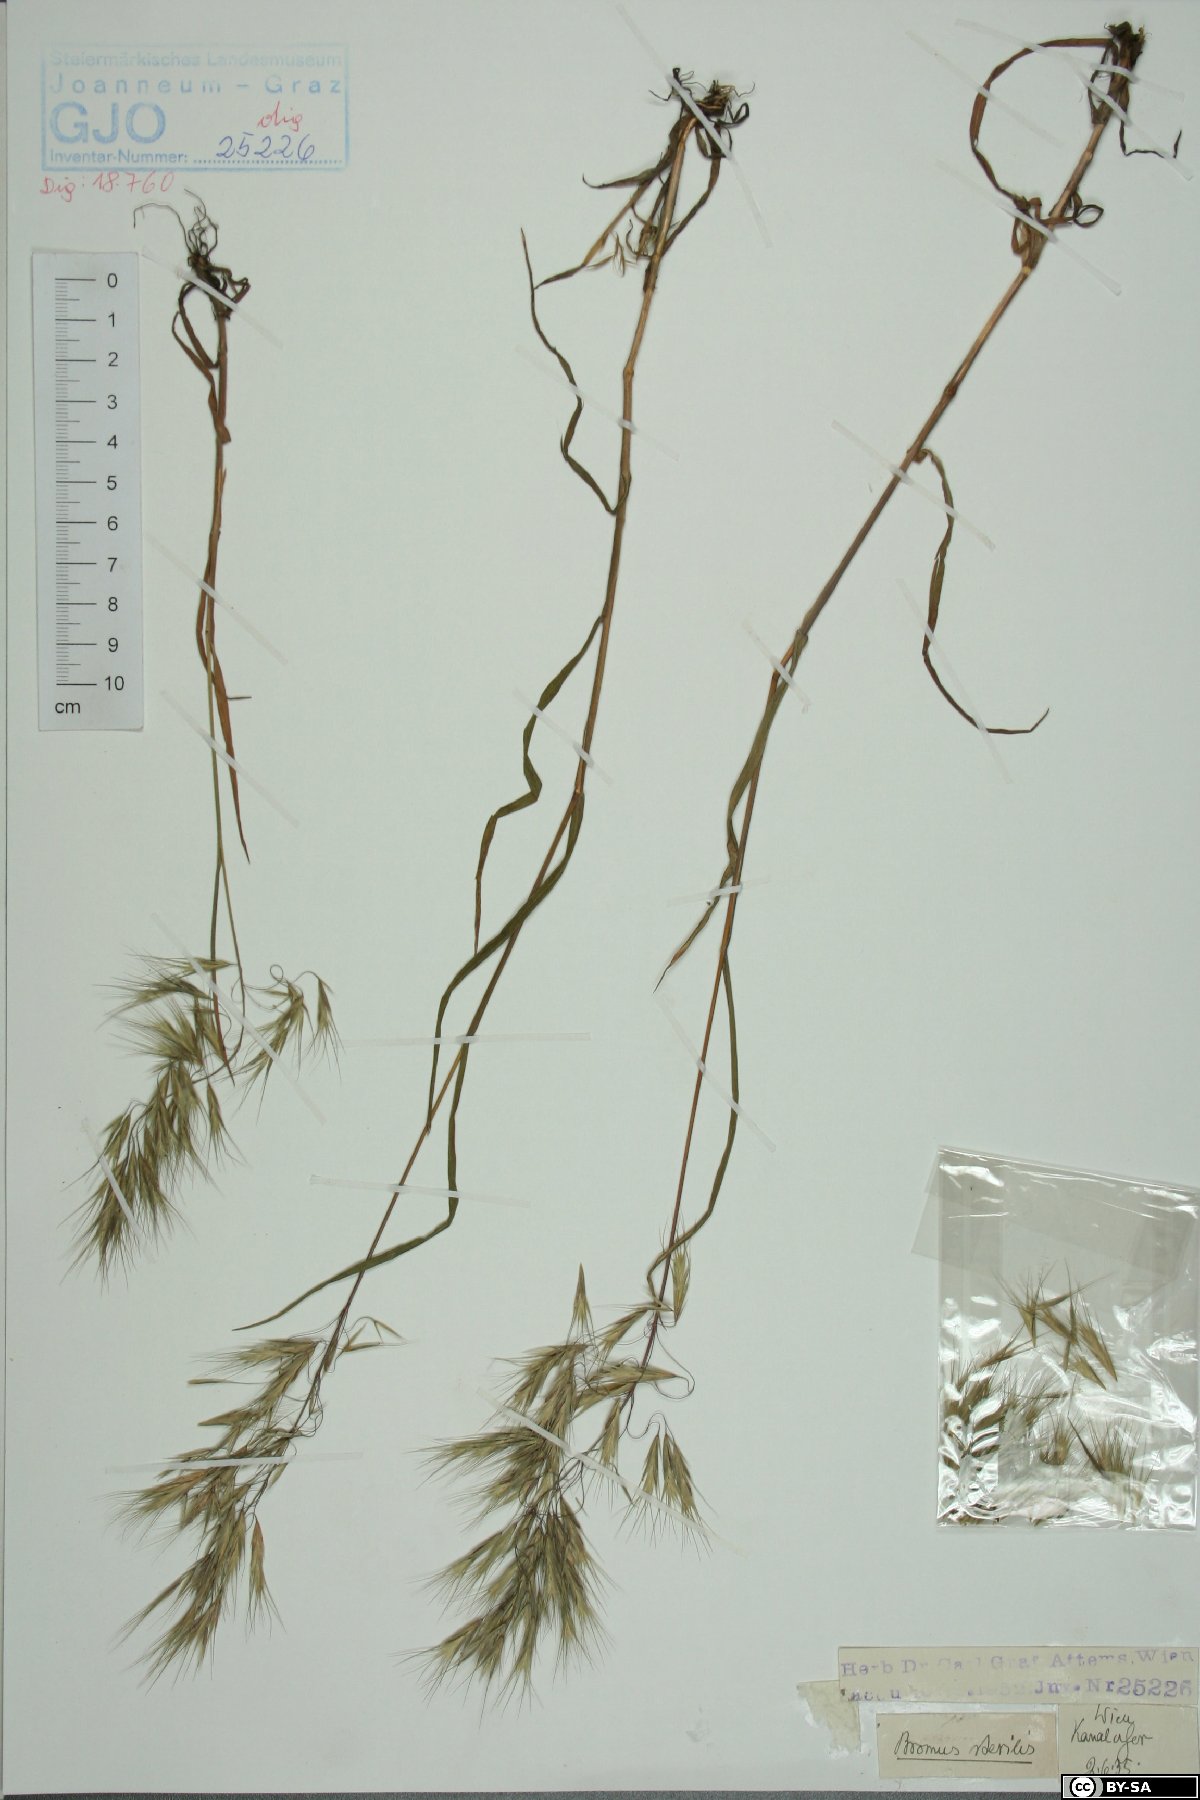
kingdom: Plantae
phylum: Tracheophyta
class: Liliopsida
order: Poales
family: Poaceae
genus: Bromus
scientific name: Bromus sterilis
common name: Poverty brome
